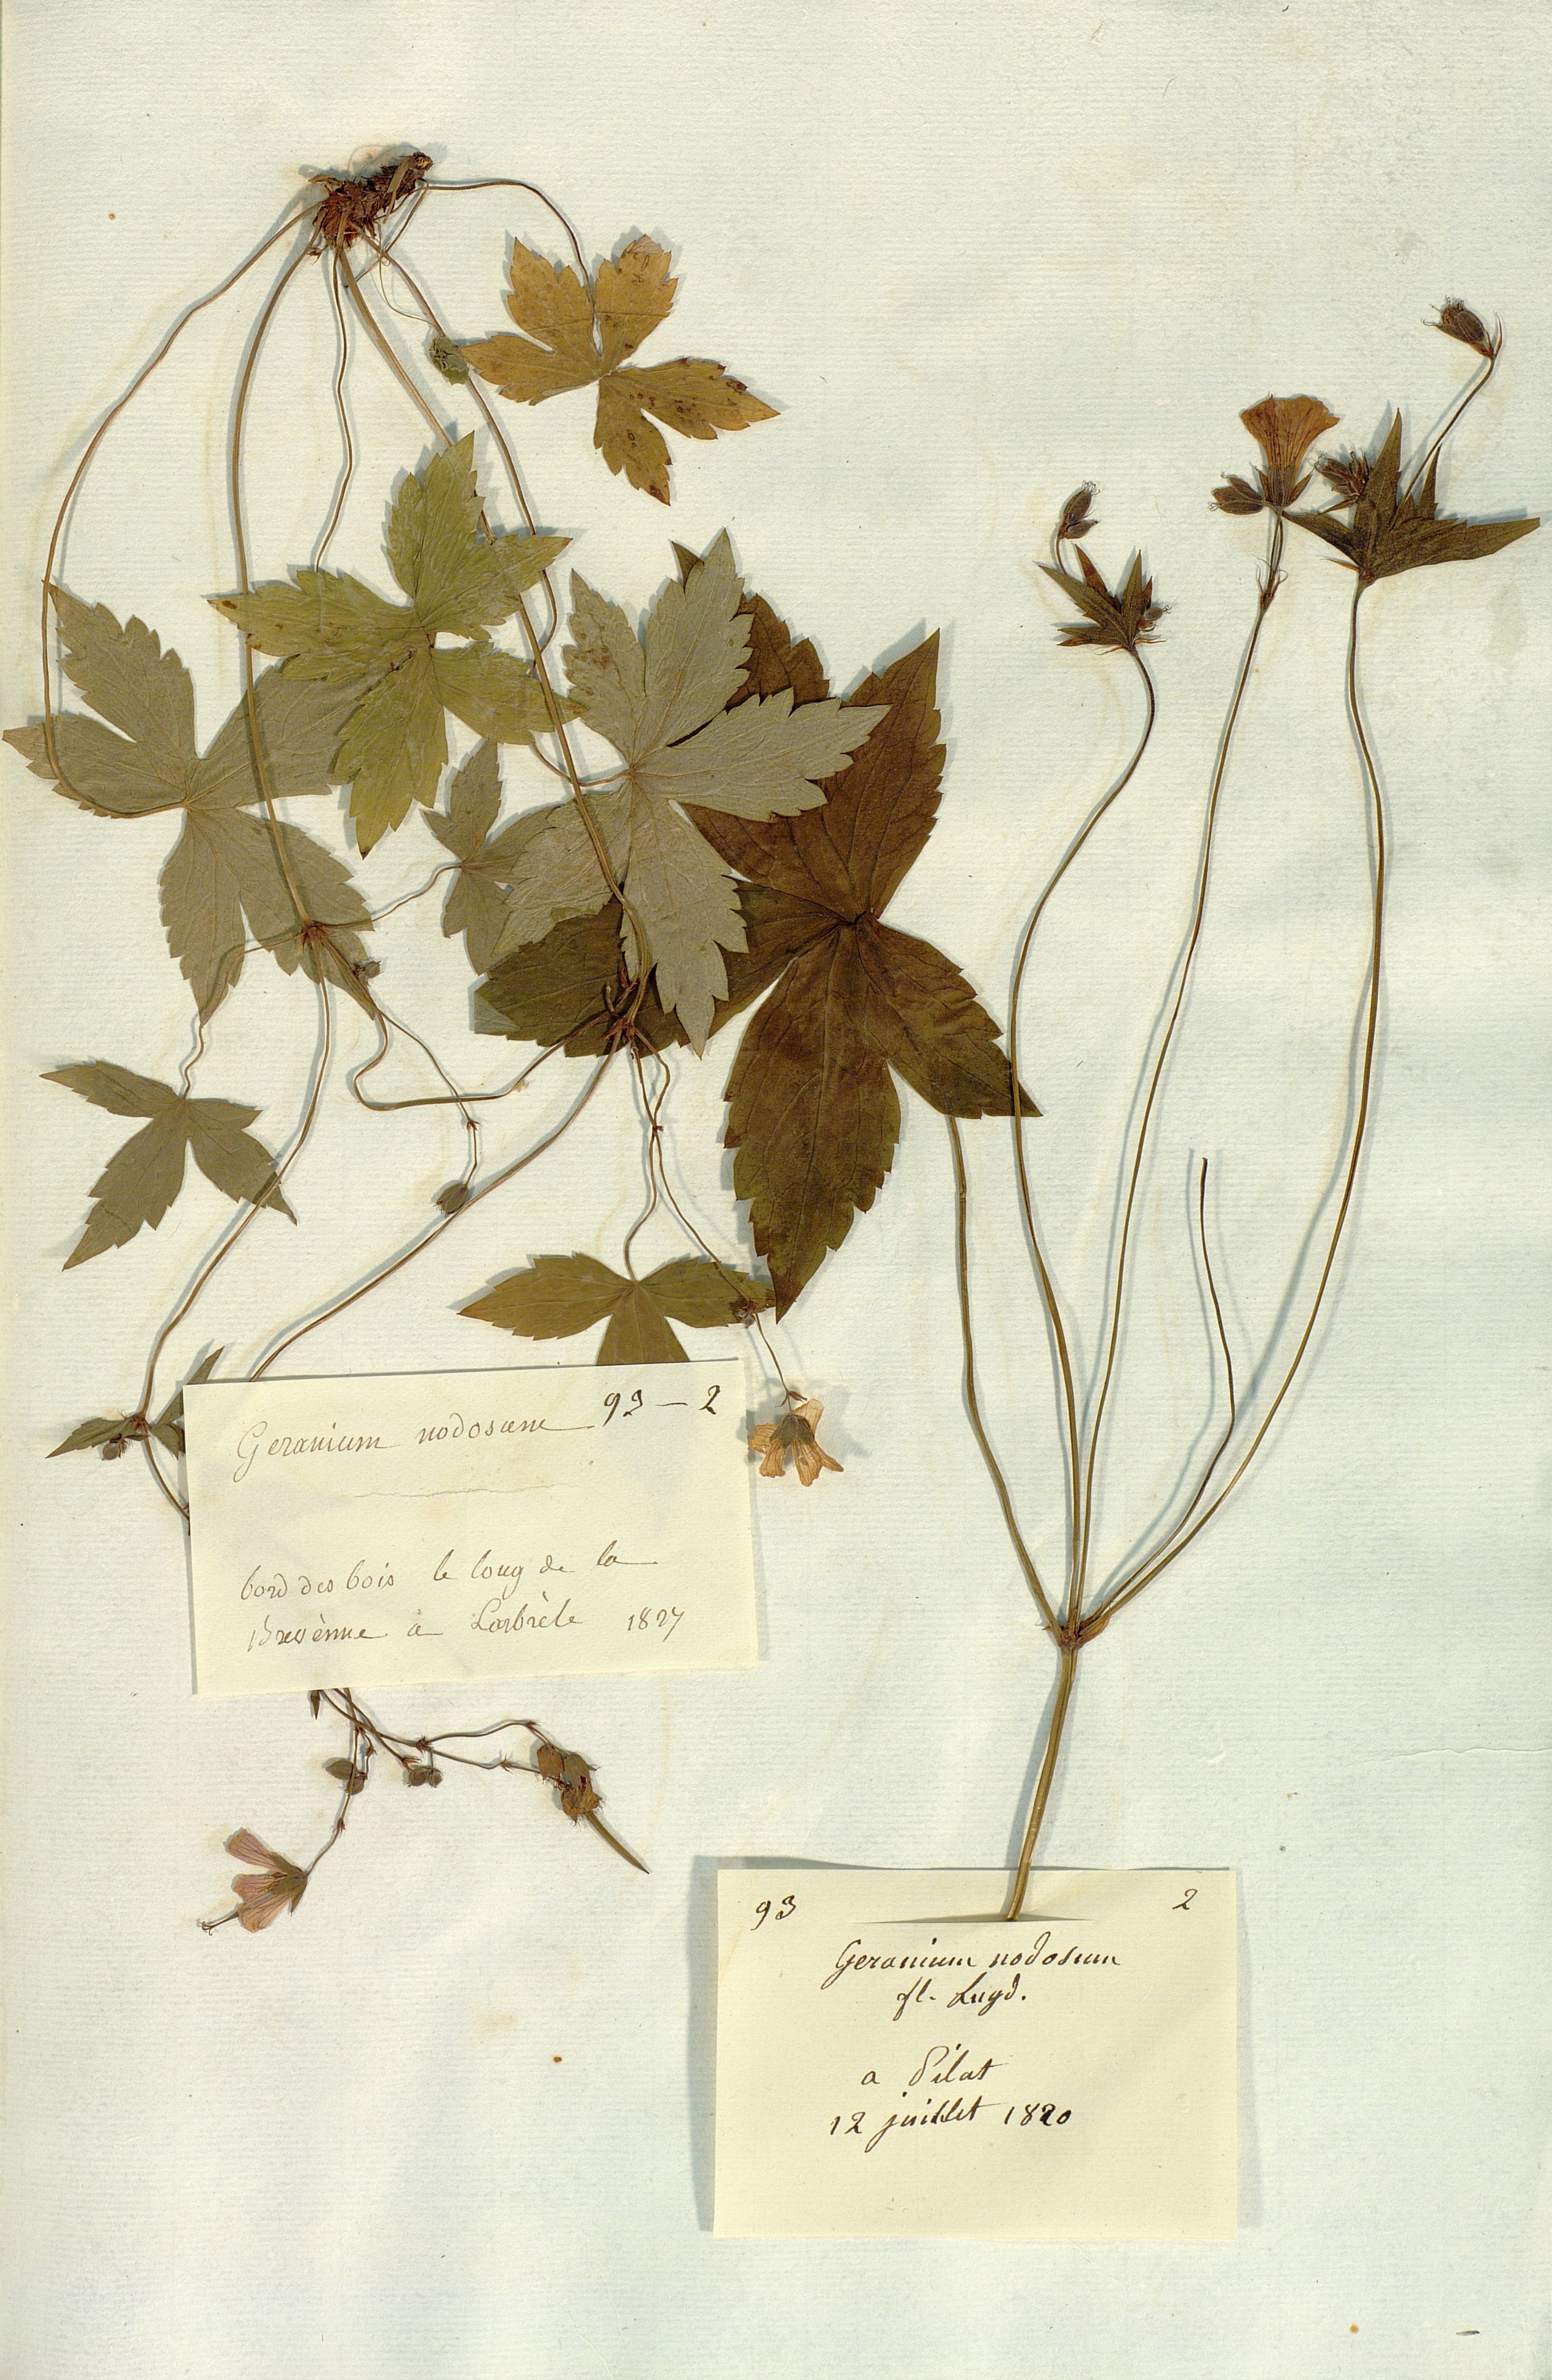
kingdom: Plantae
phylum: Tracheophyta
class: Magnoliopsida
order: Geraniales
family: Geraniaceae
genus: Geranium
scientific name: Geranium nodosum
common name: Knotted crane's-bill
